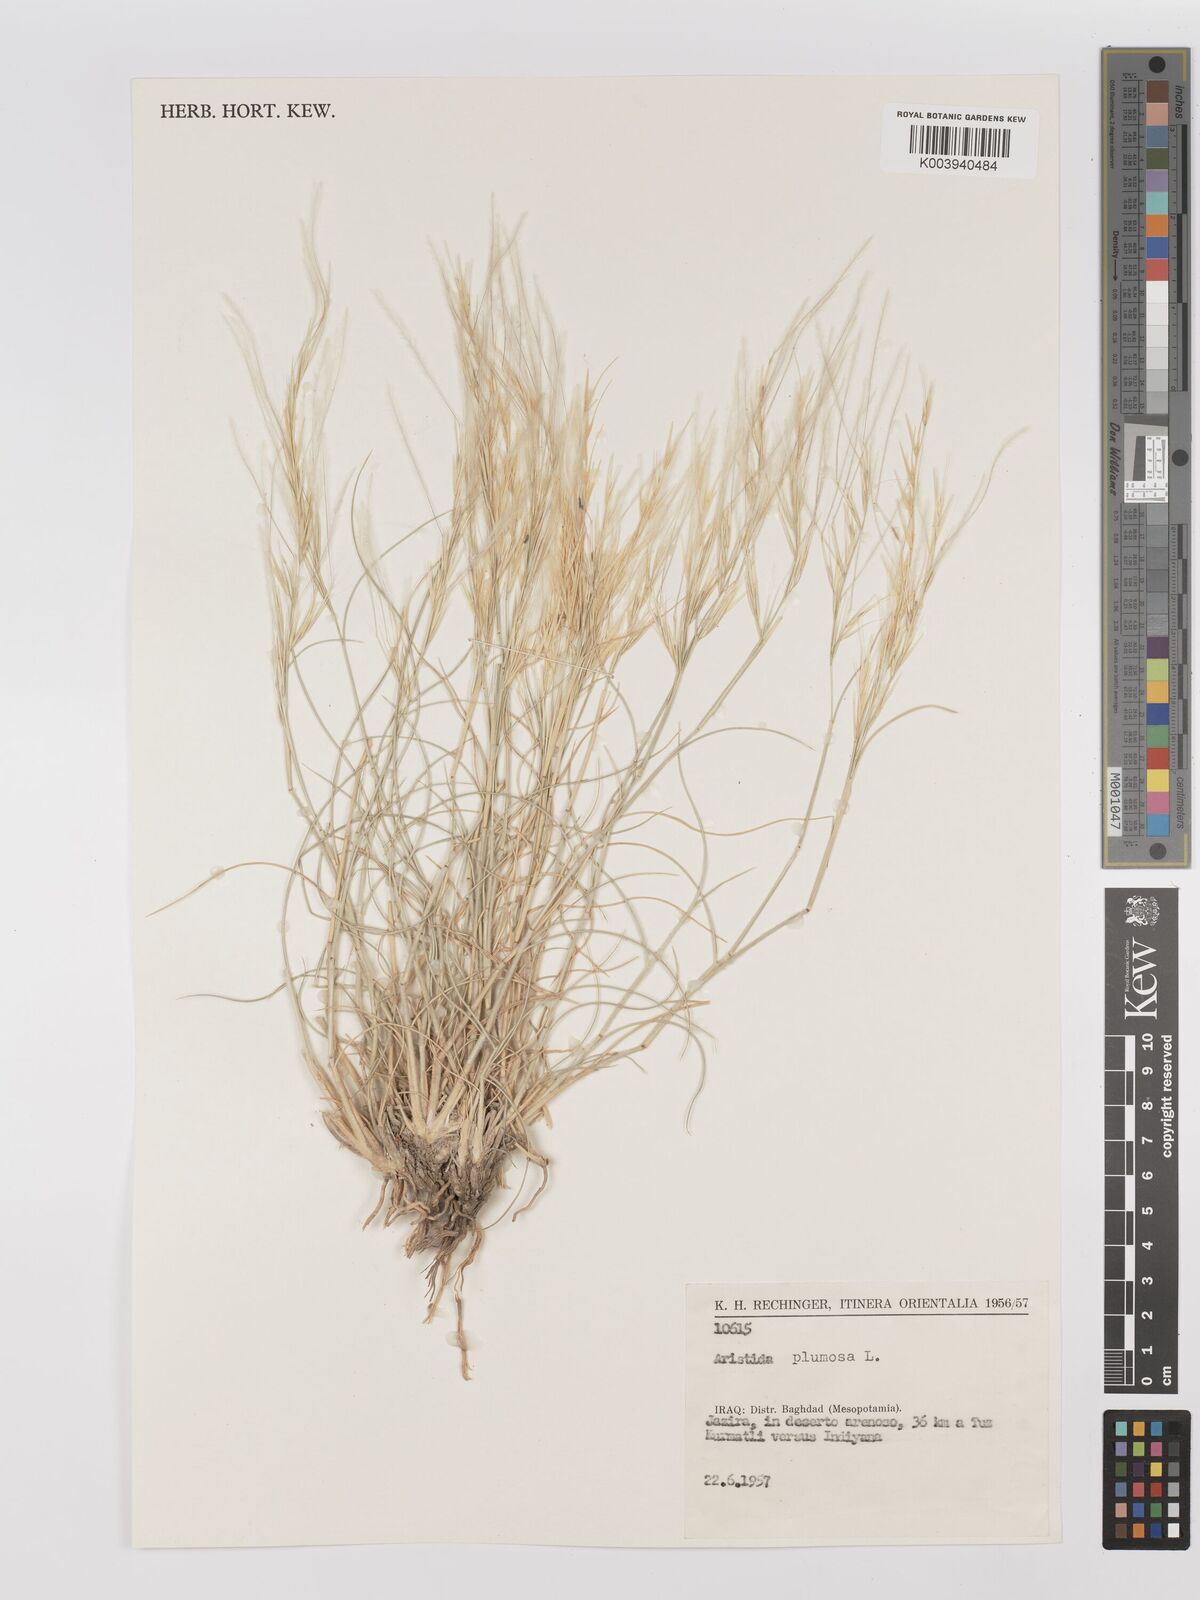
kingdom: Plantae
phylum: Tracheophyta
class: Liliopsida
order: Poales
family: Poaceae
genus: Stipagrostis
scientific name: Stipagrostis plumosa
